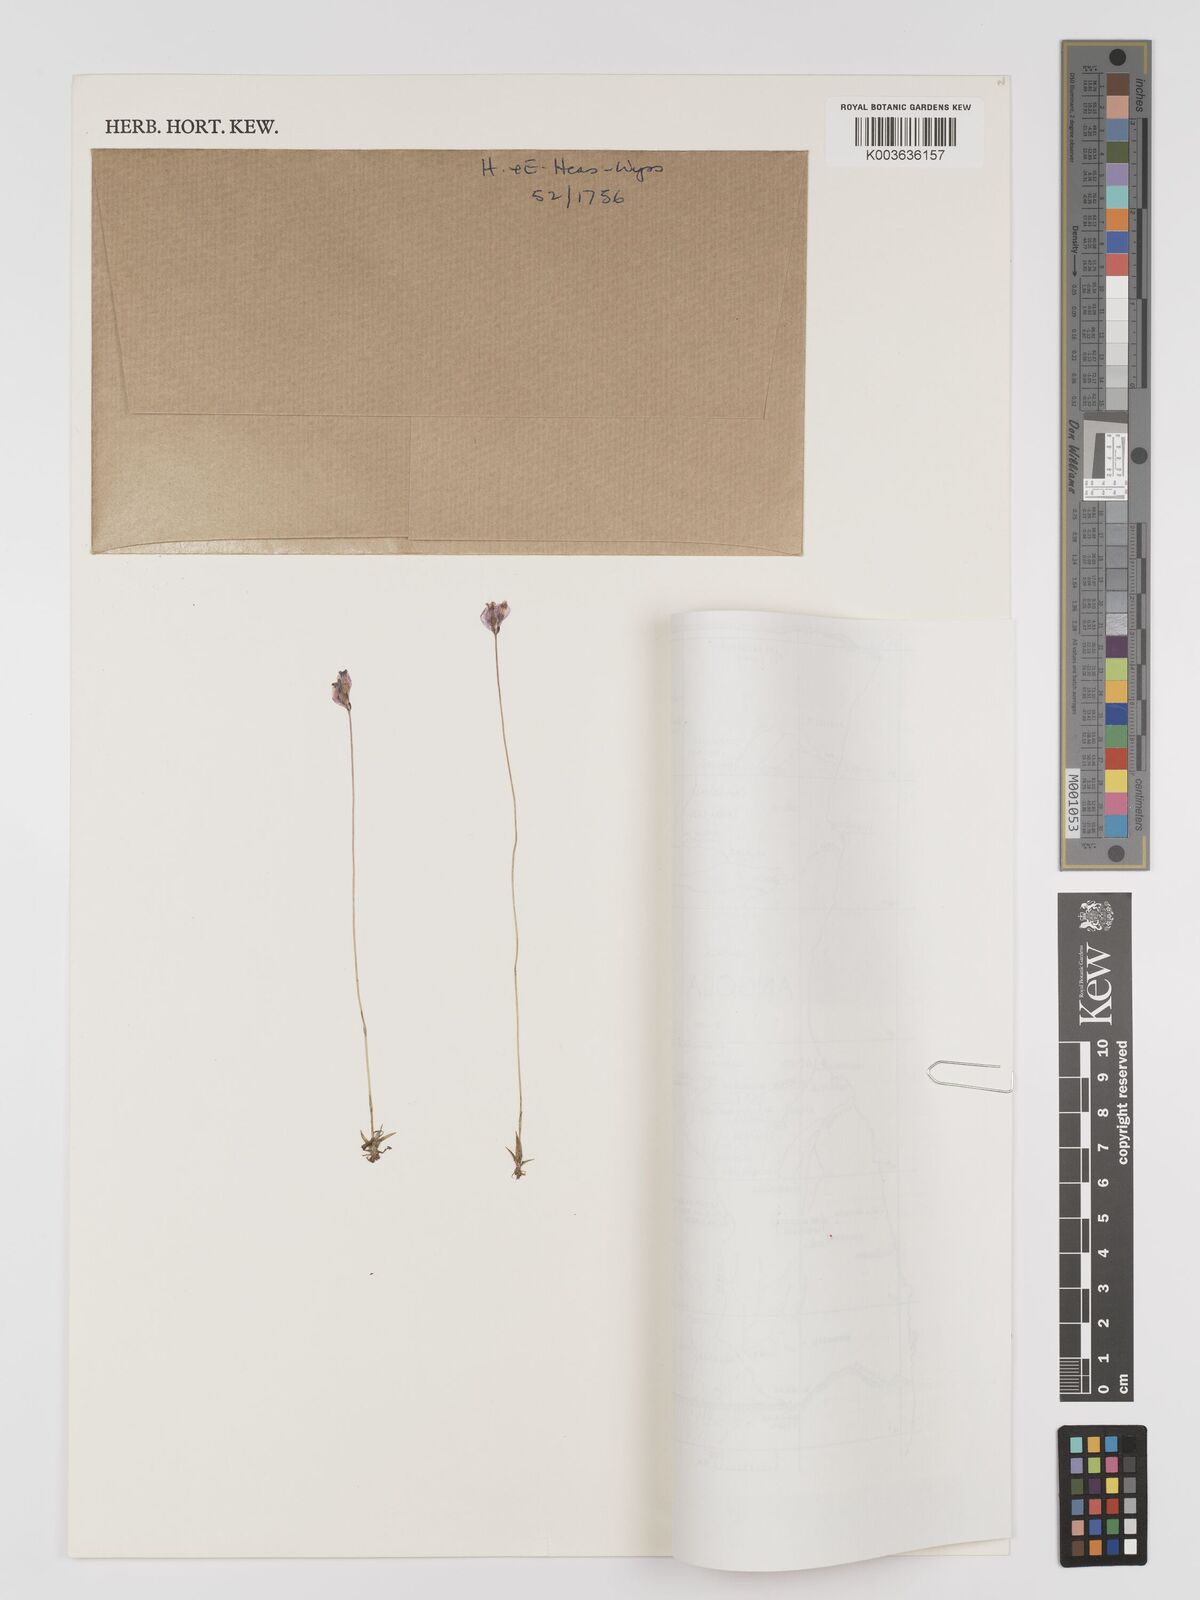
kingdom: Plantae
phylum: Tracheophyta
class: Liliopsida
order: Dioscoreales
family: Burmanniaceae
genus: Burmannia
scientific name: Burmannia madagascariensis
